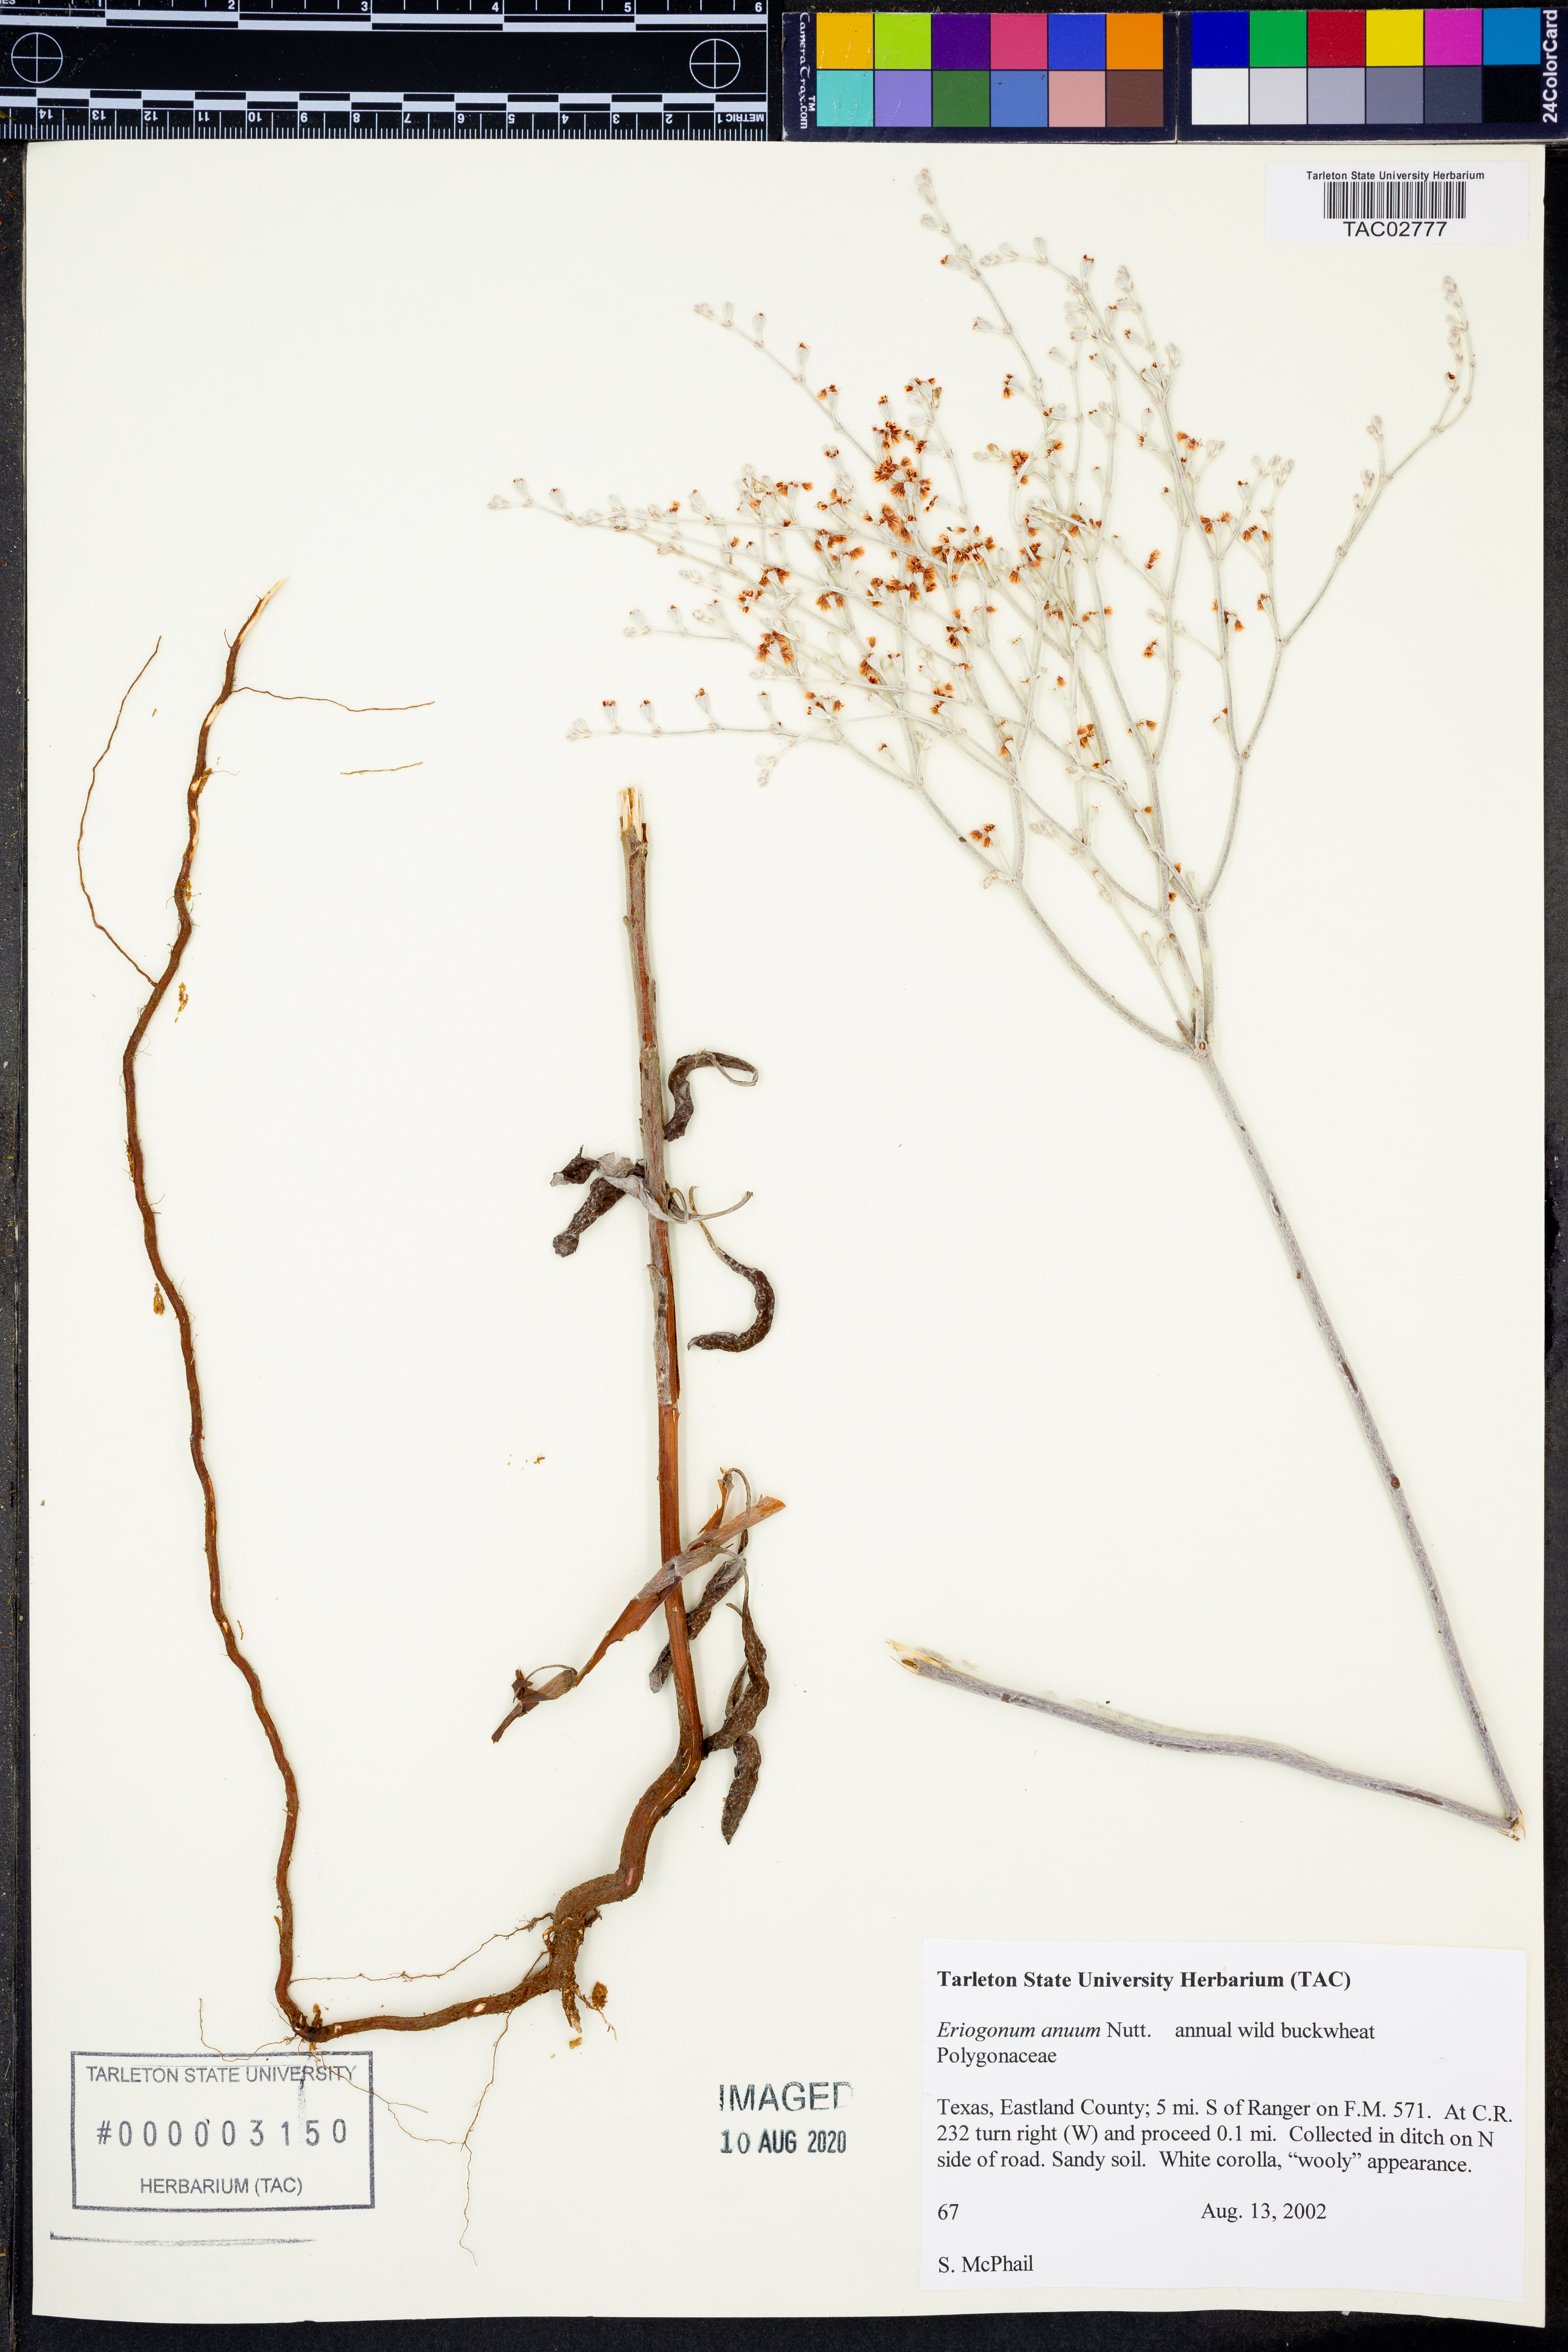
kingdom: Plantae
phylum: Tracheophyta
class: Magnoliopsida
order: Caryophyllales
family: Polygonaceae
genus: Eriogonum
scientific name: Eriogonum annuum
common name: Annual wild buckwheat
